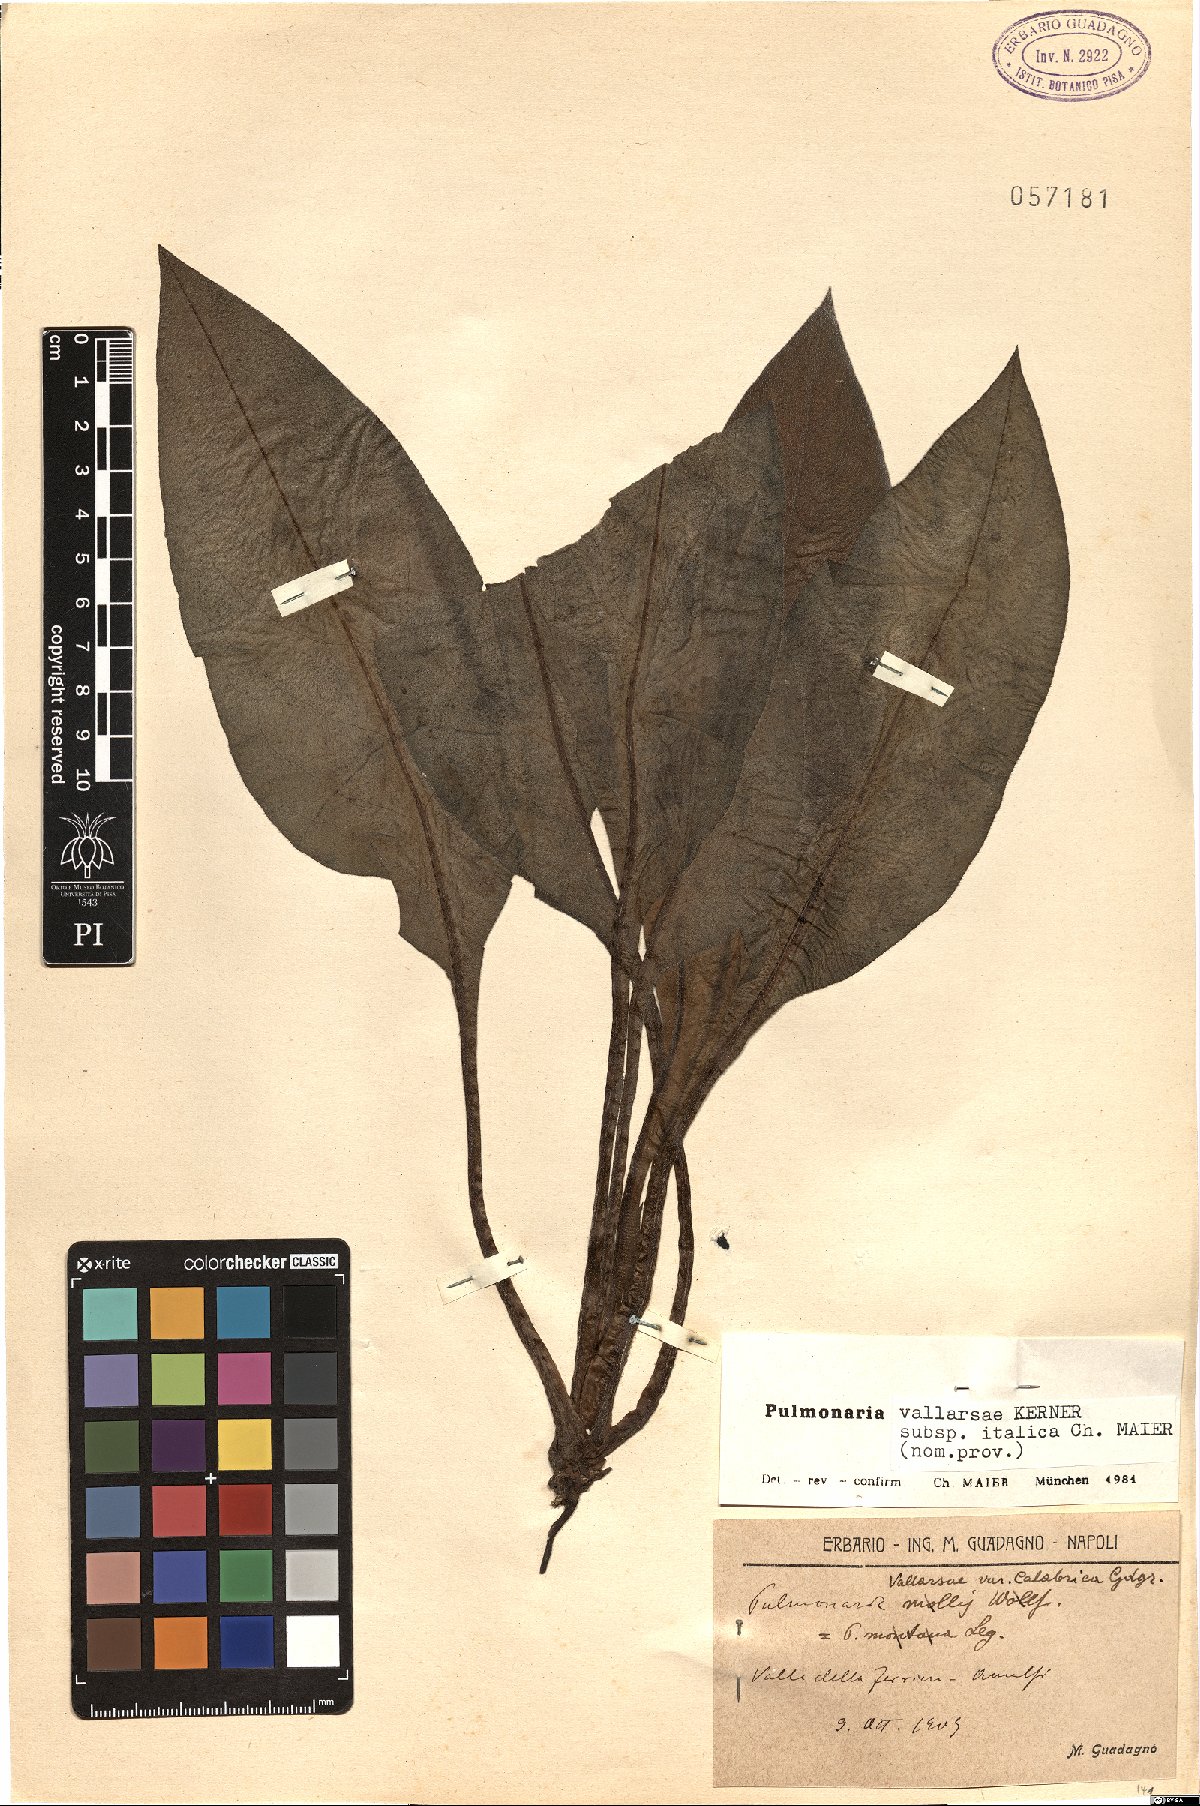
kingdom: Plantae
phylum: Tracheophyta
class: Magnoliopsida
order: Boraginales
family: Boraginaceae
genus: Pulmonaria
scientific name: Pulmonaria hirta
